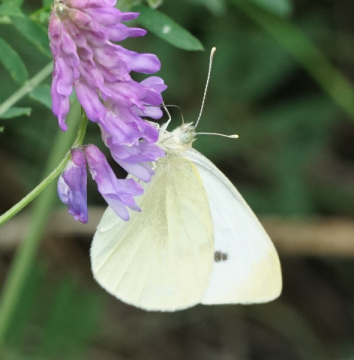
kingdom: Animalia
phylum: Arthropoda
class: Insecta
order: Lepidoptera
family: Pieridae
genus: Pieris
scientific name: Pieris rapae
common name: Cabbage White
